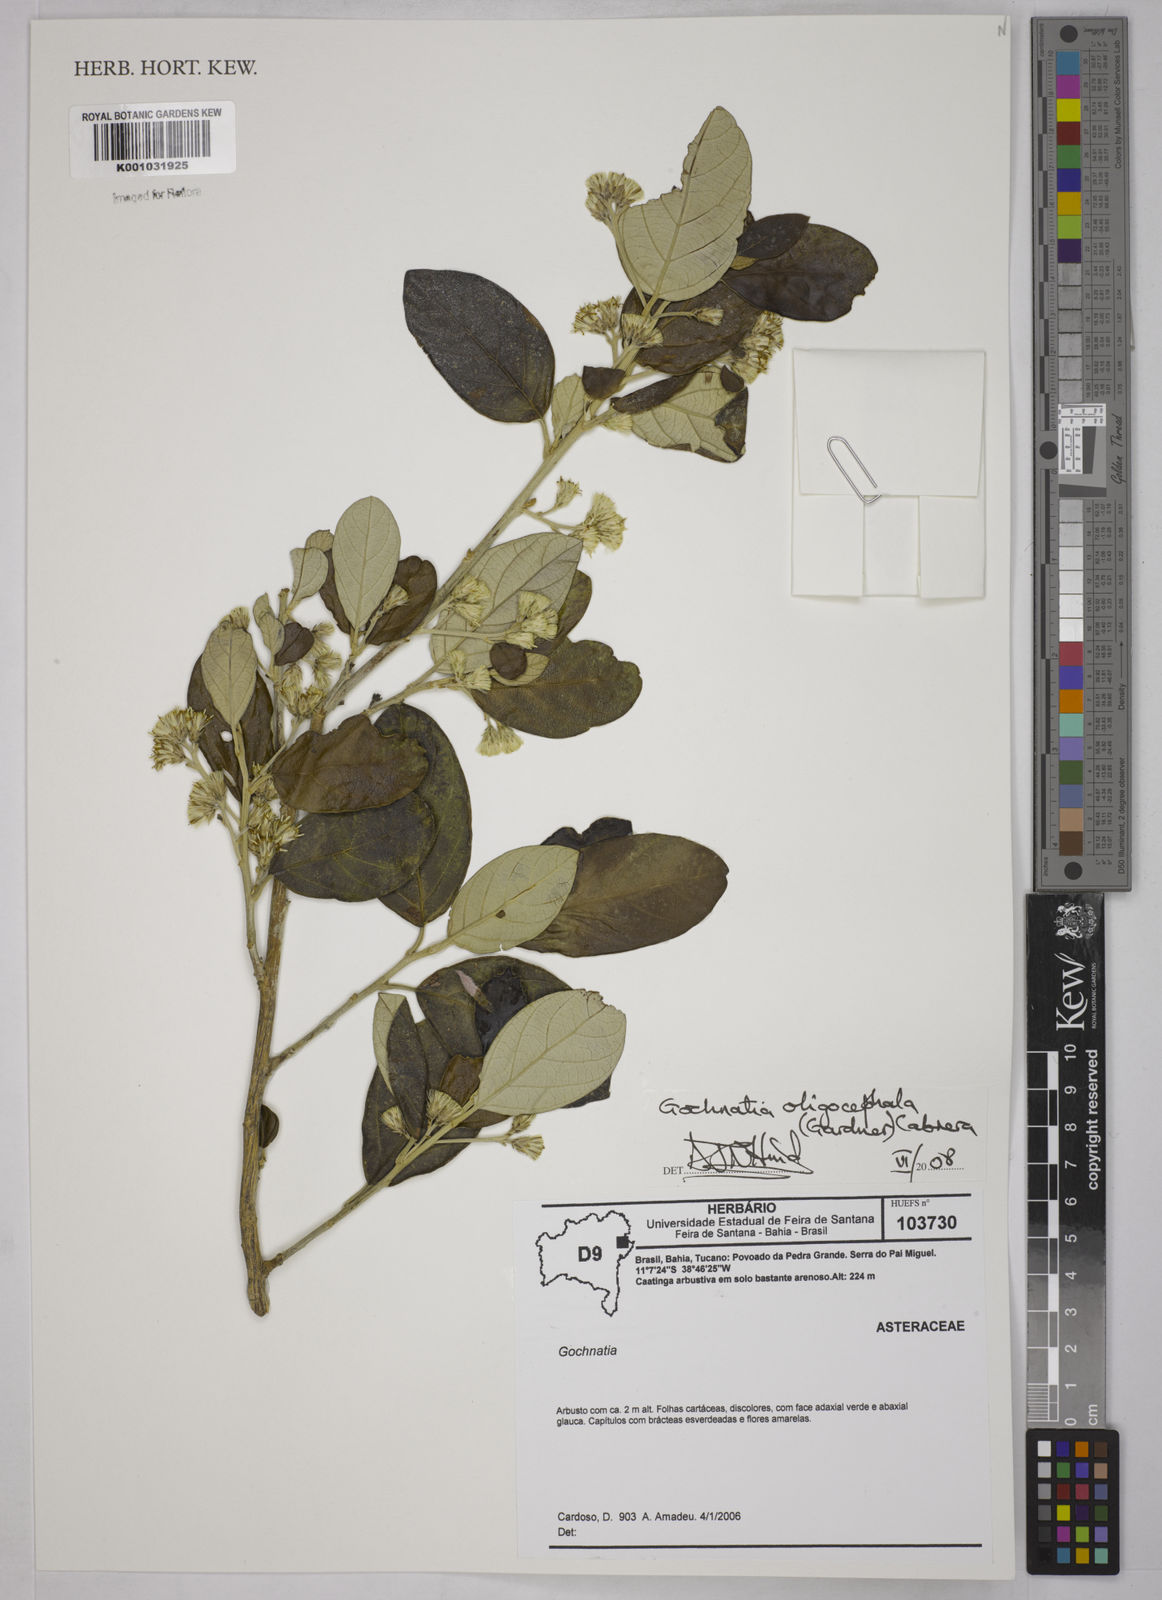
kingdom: Plantae
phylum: Tracheophyta
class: Magnoliopsida
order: Asterales
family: Asteraceae
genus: Moquiniastrum
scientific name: Moquiniastrum oligocephalum
